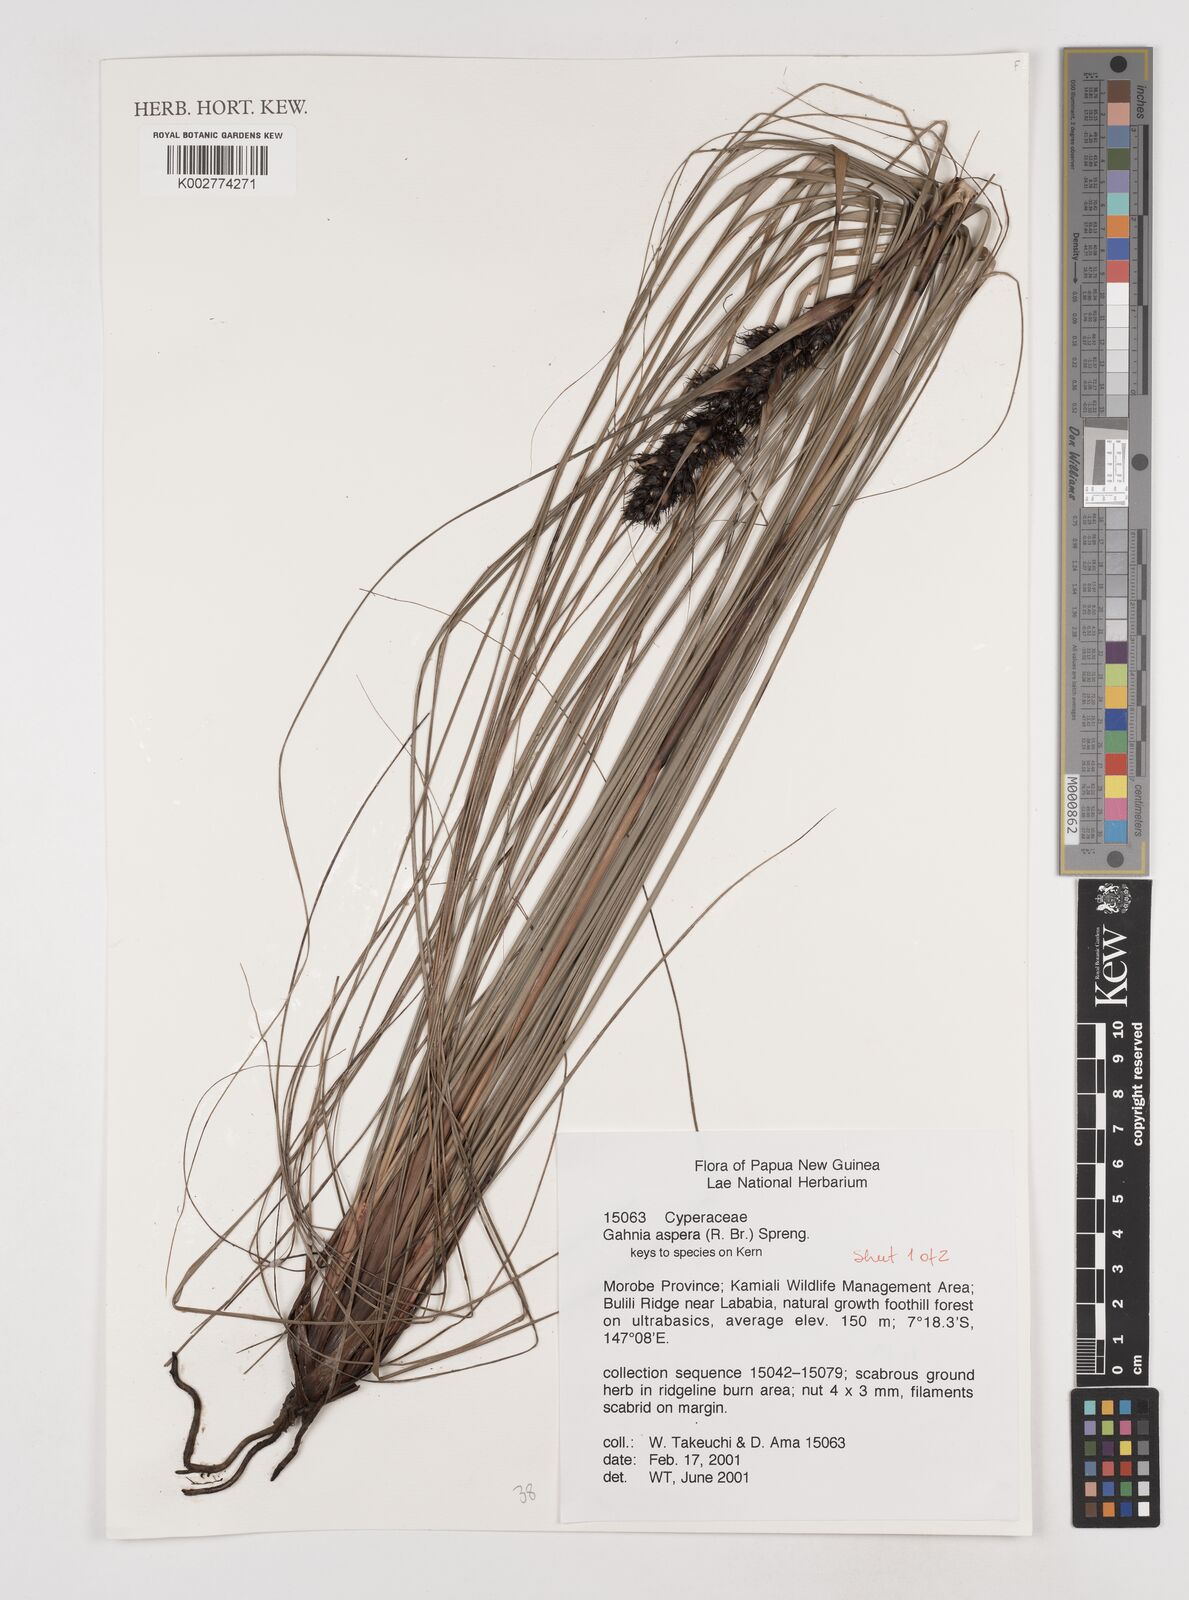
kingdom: Plantae
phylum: Tracheophyta
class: Liliopsida
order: Poales
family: Cyperaceae
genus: Gahnia
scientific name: Gahnia aspera
